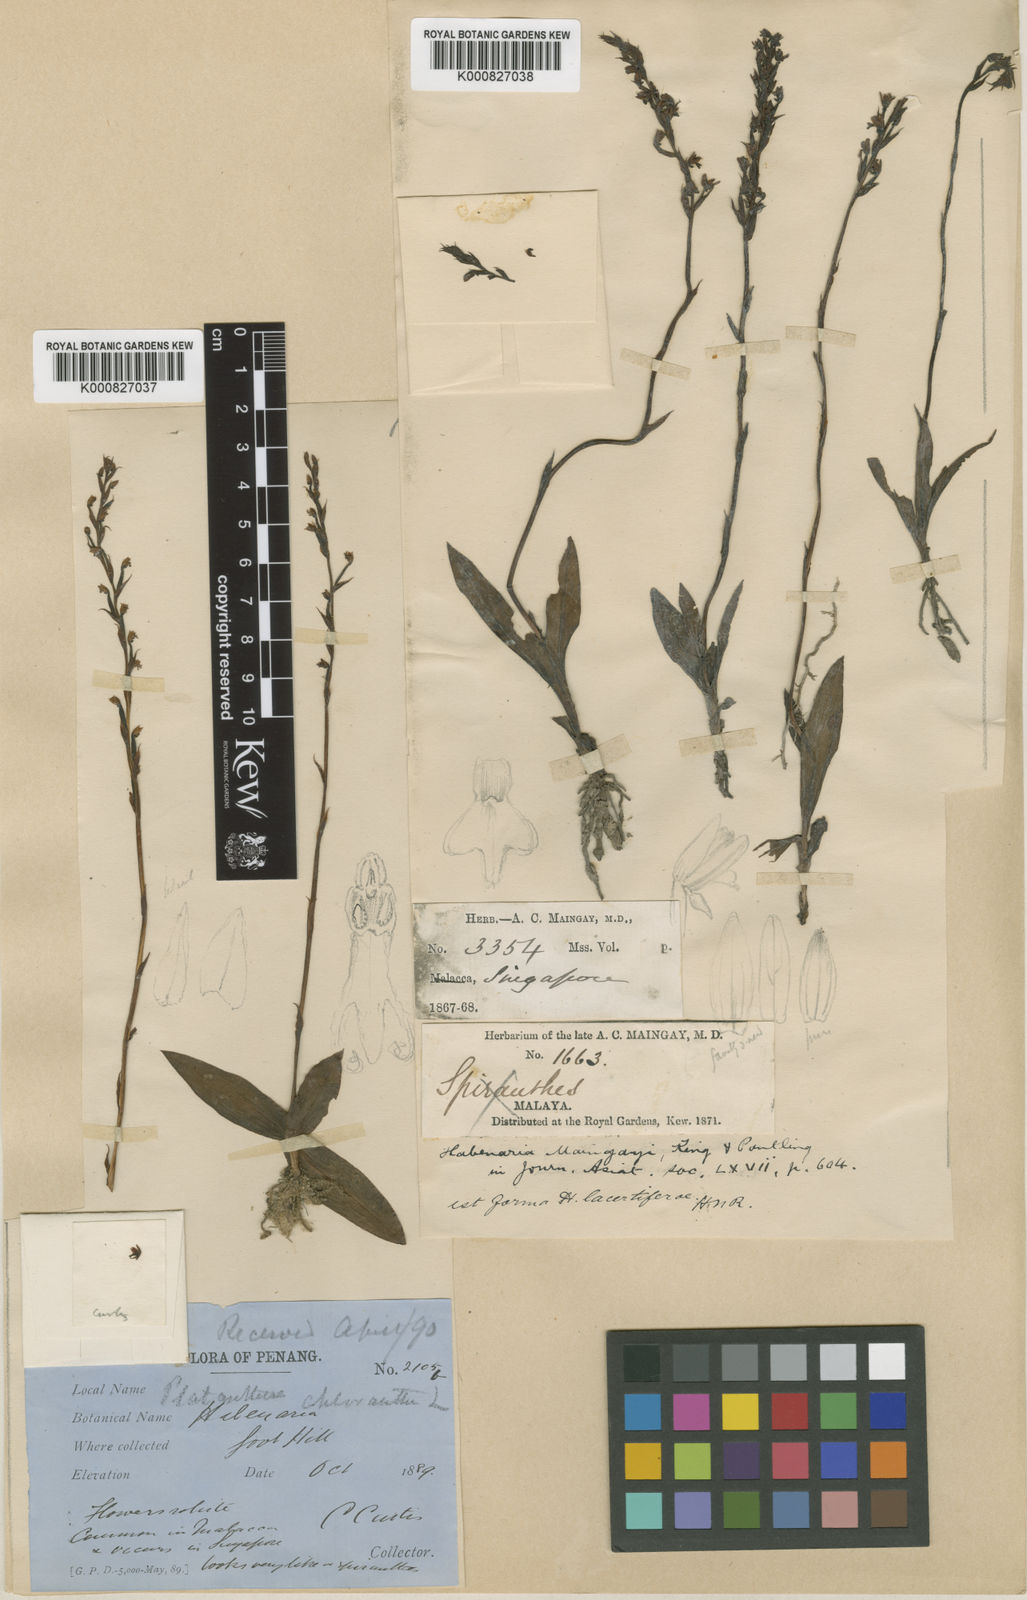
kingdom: Plantae
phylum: Tracheophyta
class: Liliopsida
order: Asparagales
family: Orchidaceae
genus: Peristylus
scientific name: Peristylus maingayi
